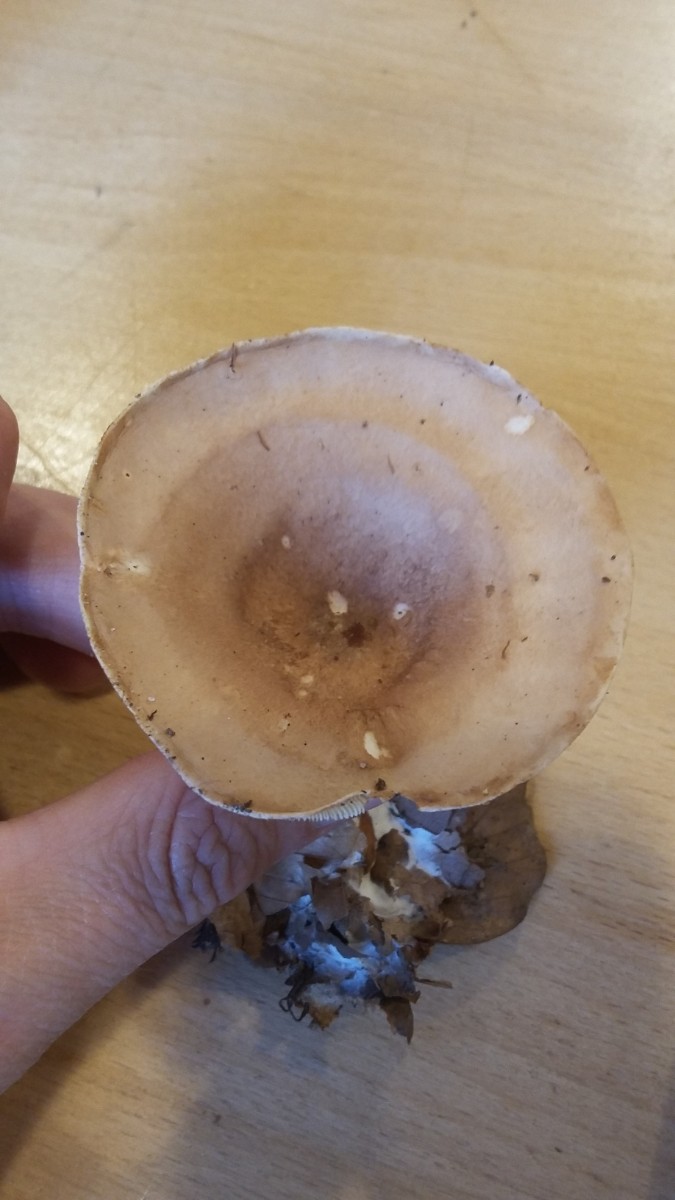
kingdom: Fungi
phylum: Basidiomycota
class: Agaricomycetes
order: Agaricales
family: Tricholomataceae
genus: Infundibulicybe
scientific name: Infundibulicybe gibba
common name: almindelig tragthat
